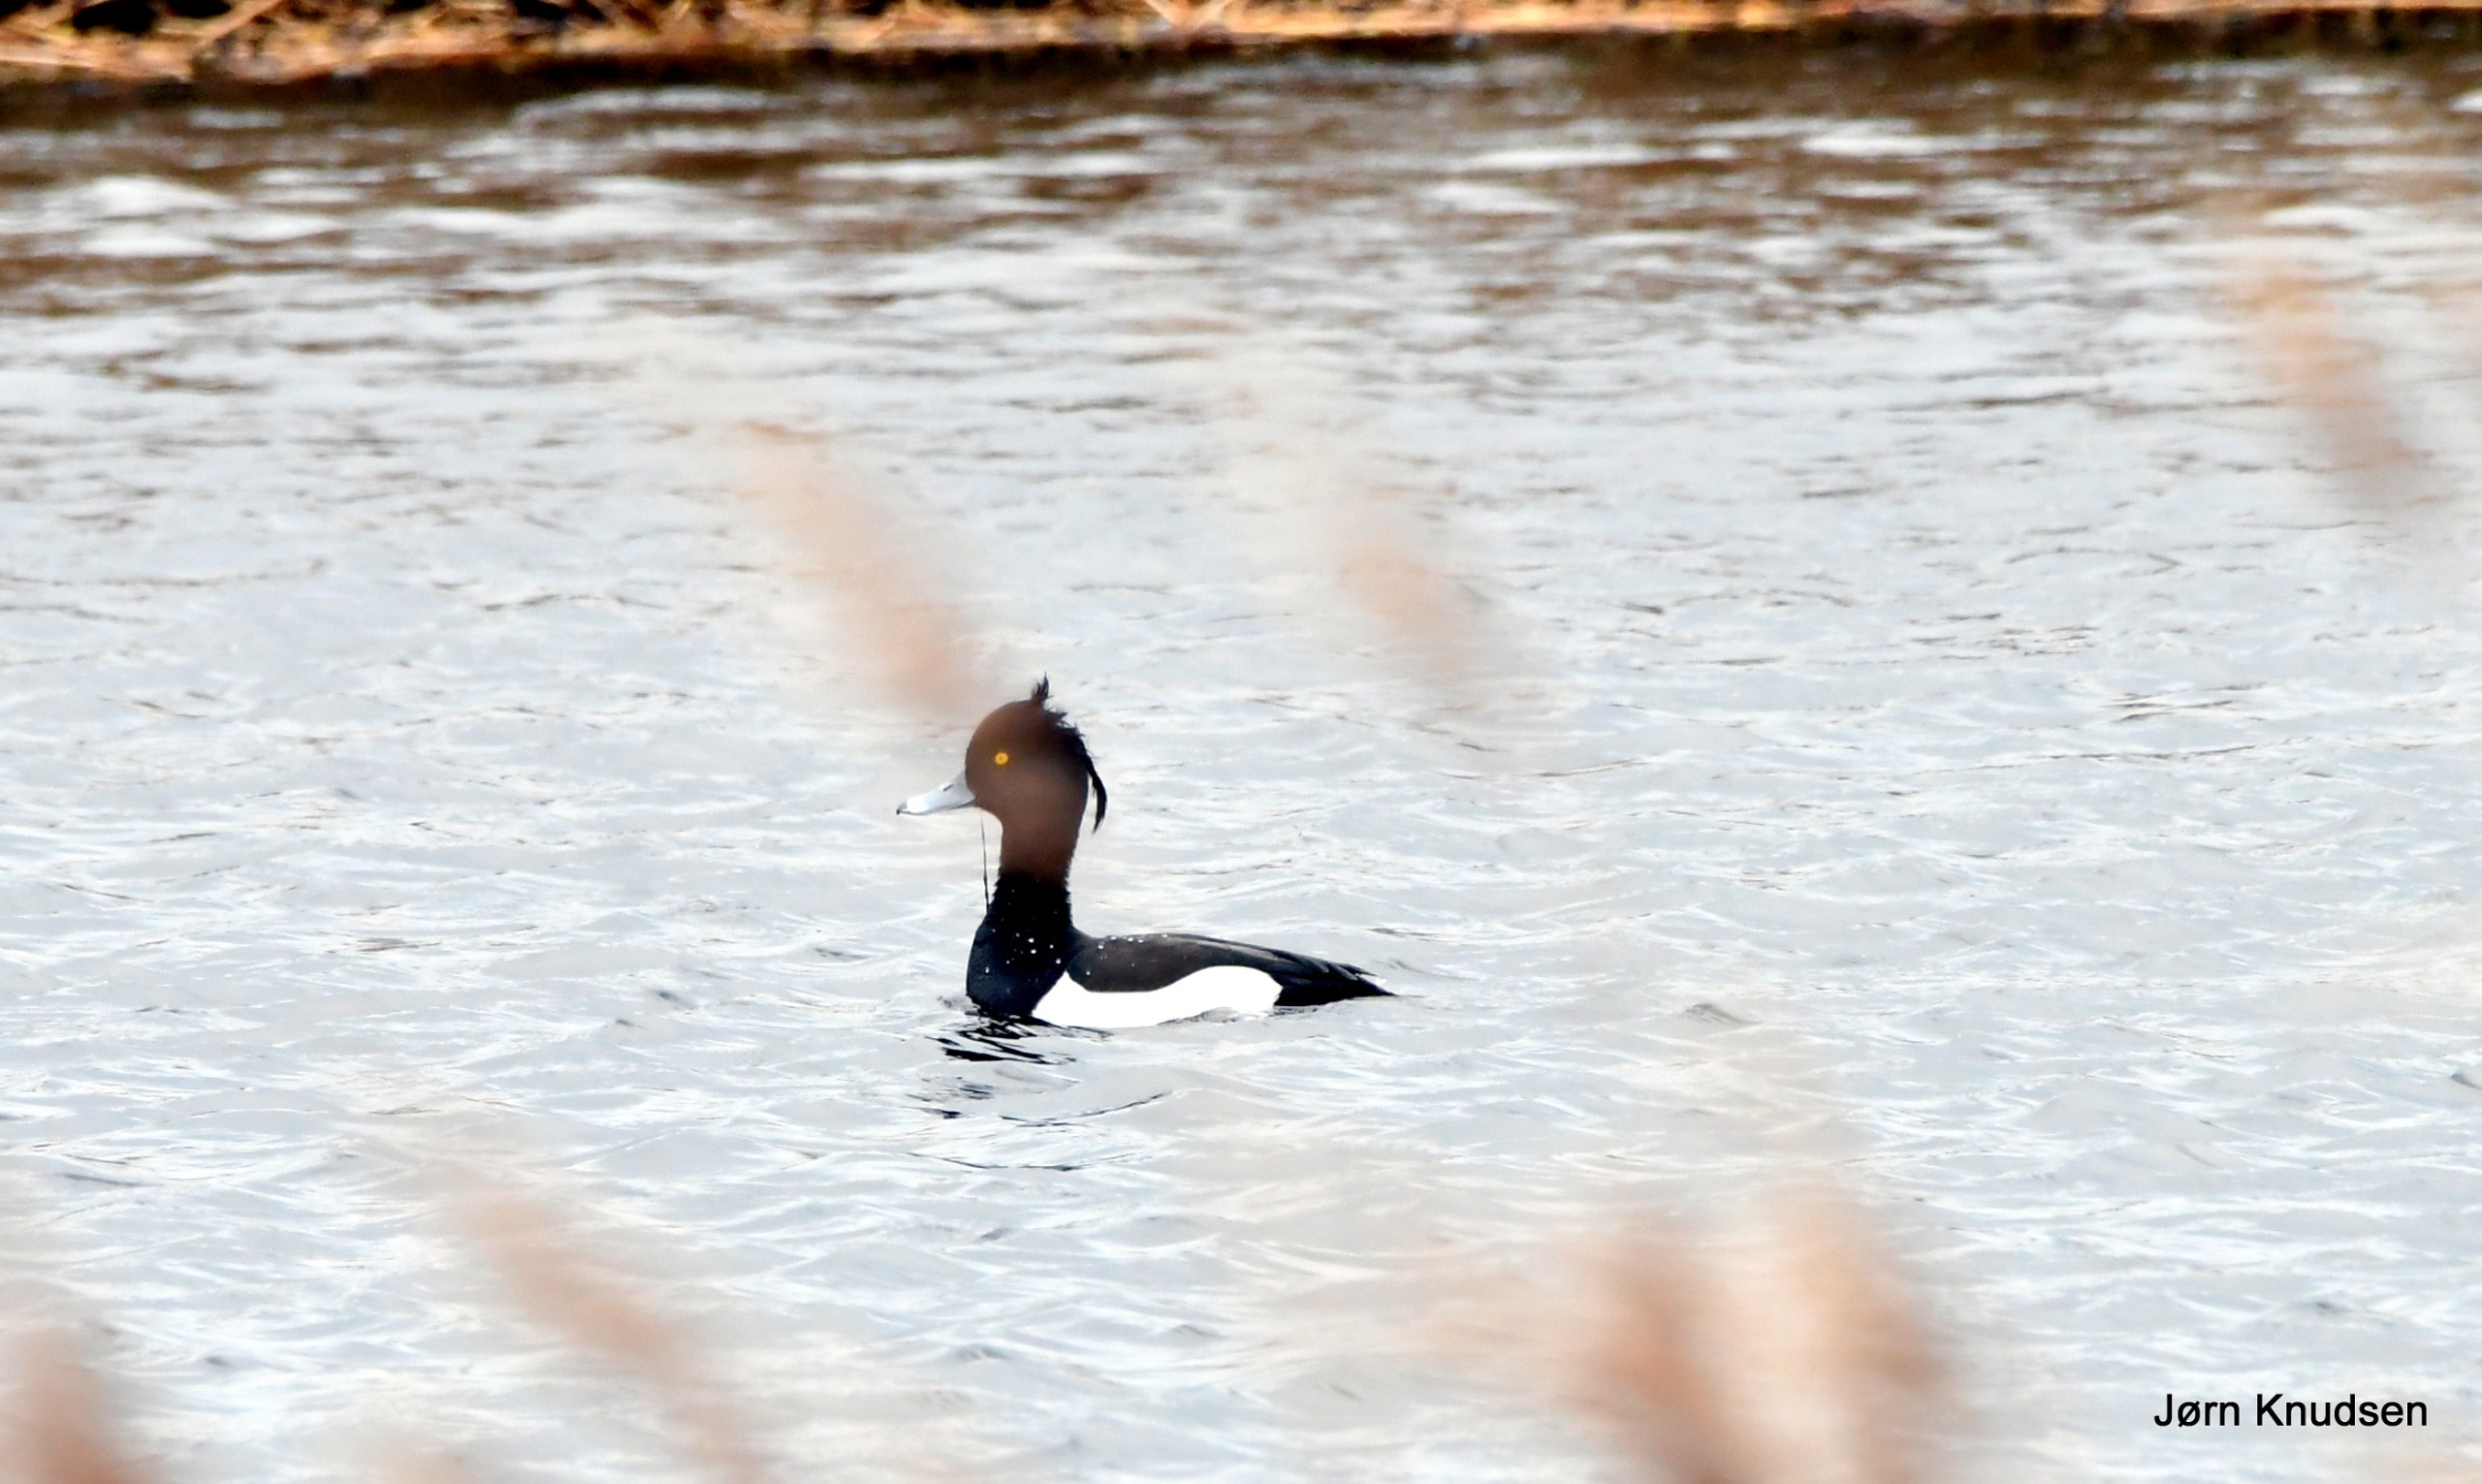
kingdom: Animalia
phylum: Chordata
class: Aves
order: Anseriformes
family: Anatidae
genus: Aythya
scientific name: Aythya fuligula
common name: Troldand
